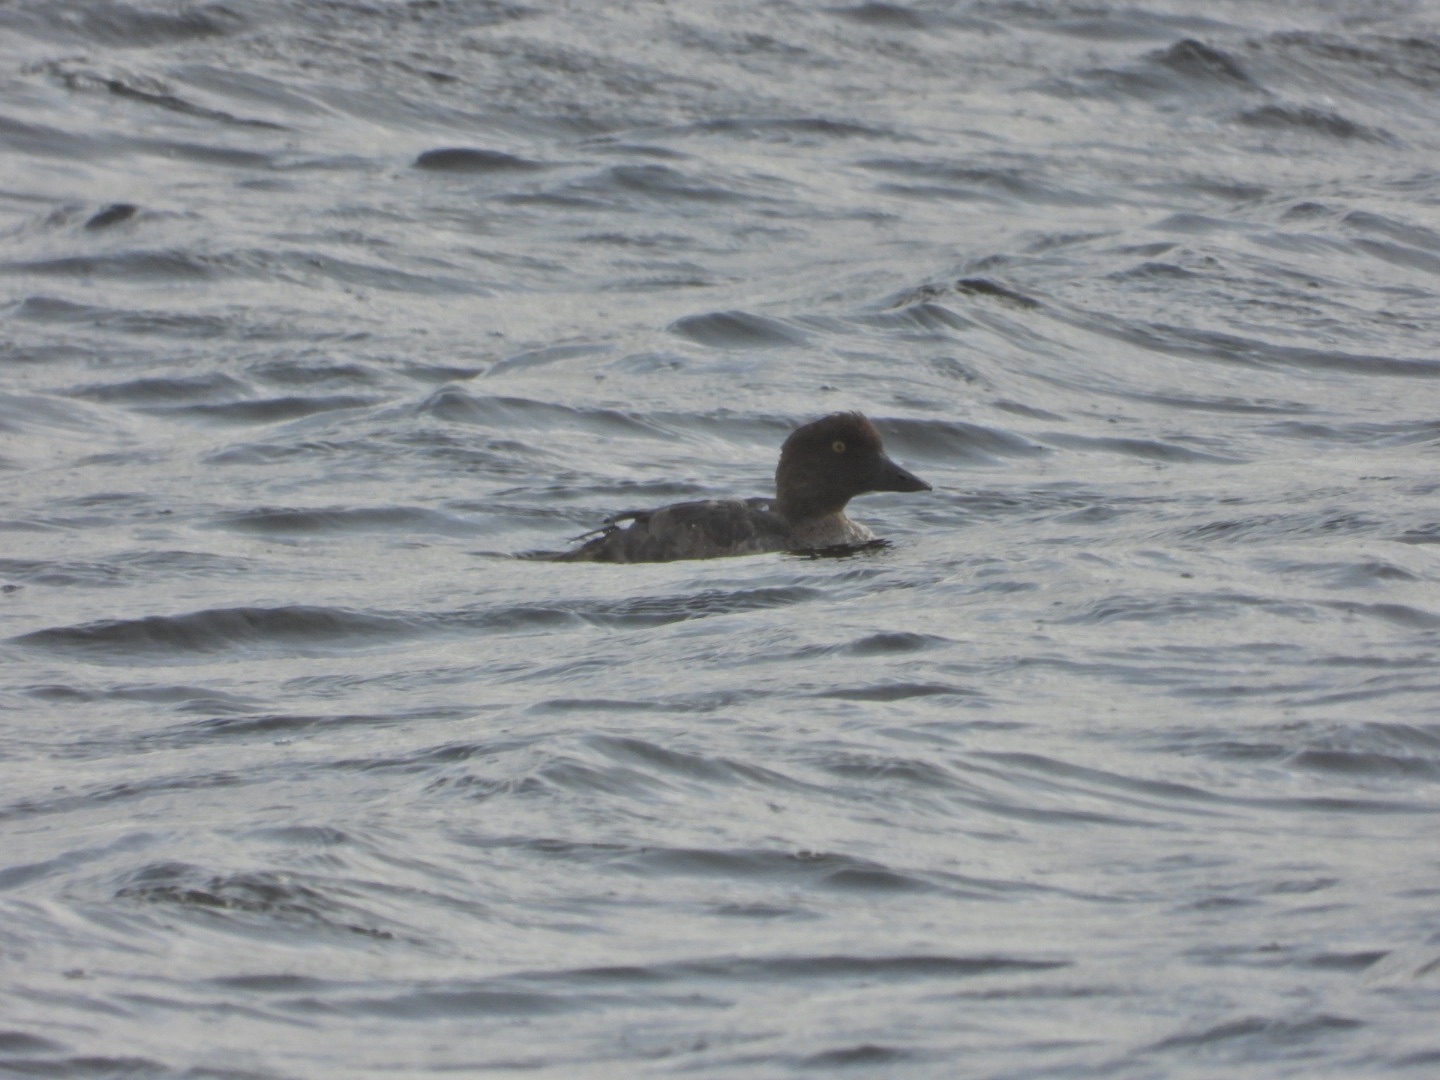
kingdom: Animalia
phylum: Chordata
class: Aves
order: Anseriformes
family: Anatidae
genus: Bucephala
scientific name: Bucephala clangula
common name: Hvinand
